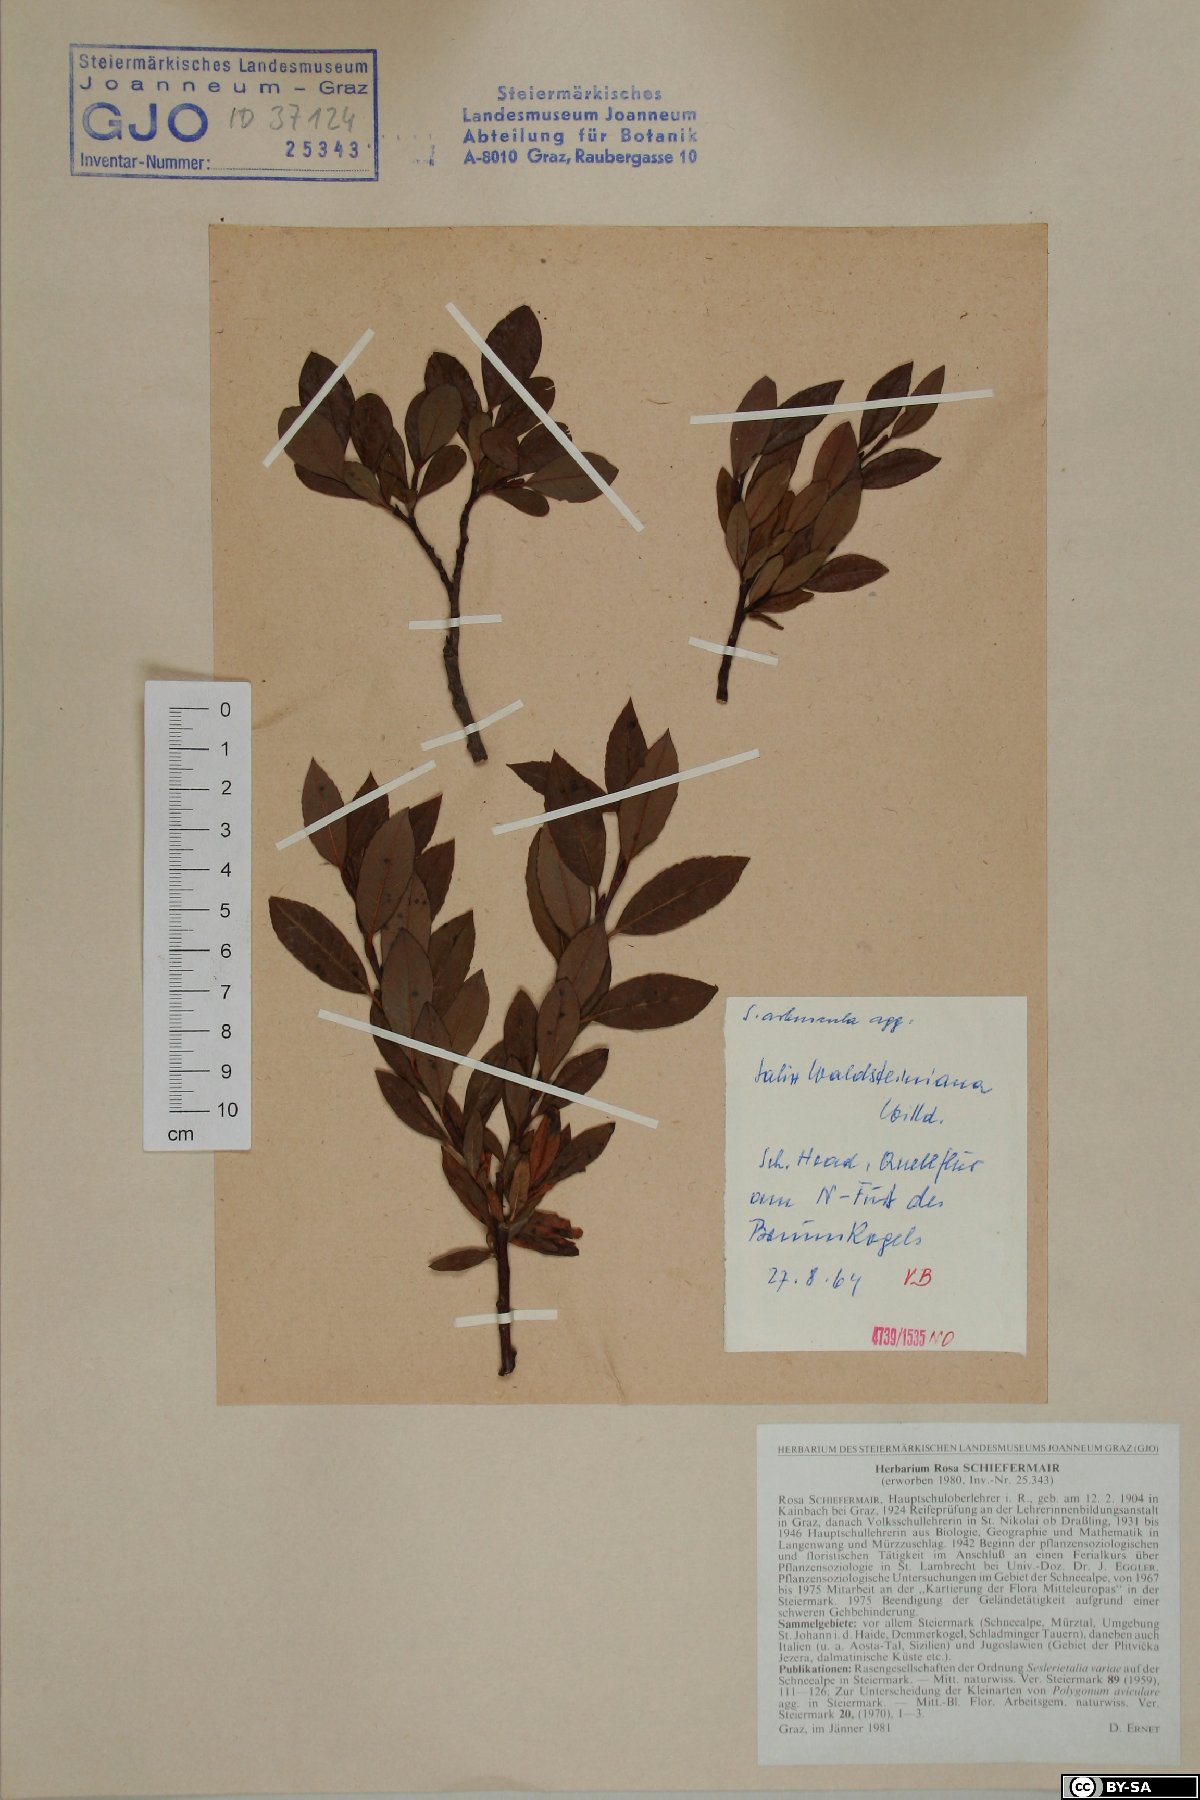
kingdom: Plantae
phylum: Tracheophyta
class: Magnoliopsida
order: Malpighiales
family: Salicaceae
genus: Salix
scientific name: Salix waldsteiniana
